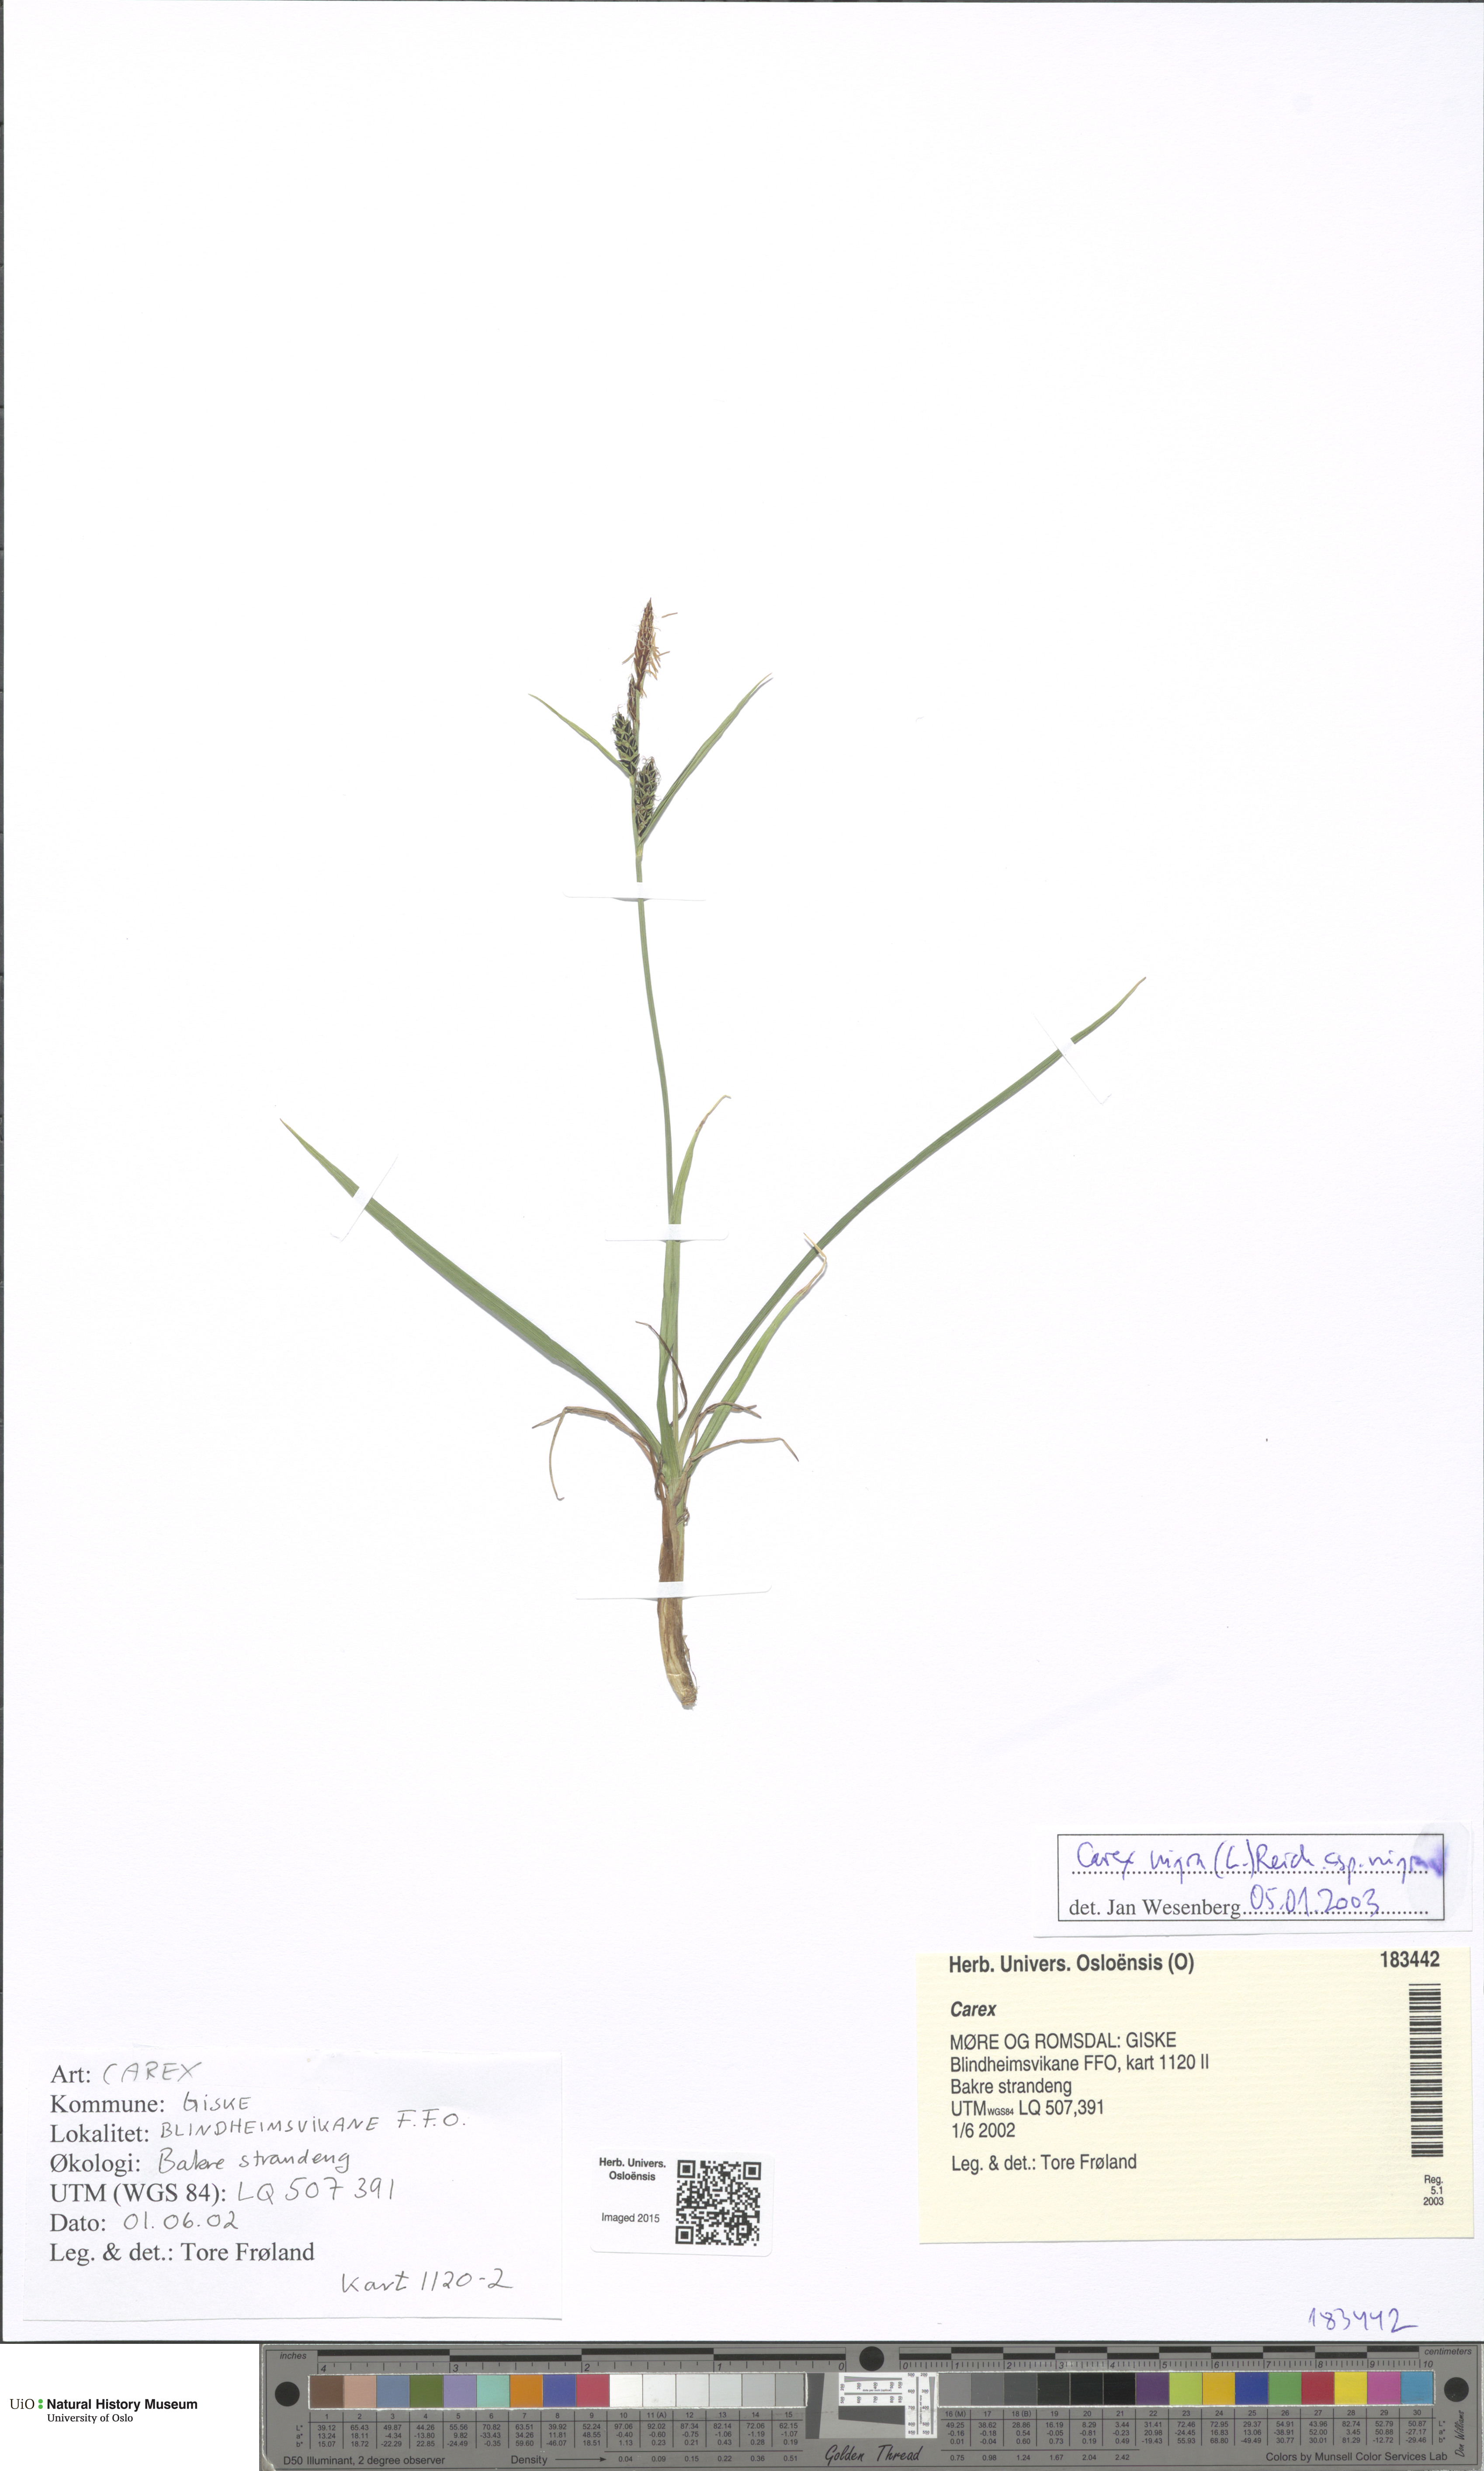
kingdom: Plantae
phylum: Tracheophyta
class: Liliopsida
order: Poales
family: Cyperaceae
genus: Carex
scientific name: Carex nigra
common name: Common sedge
